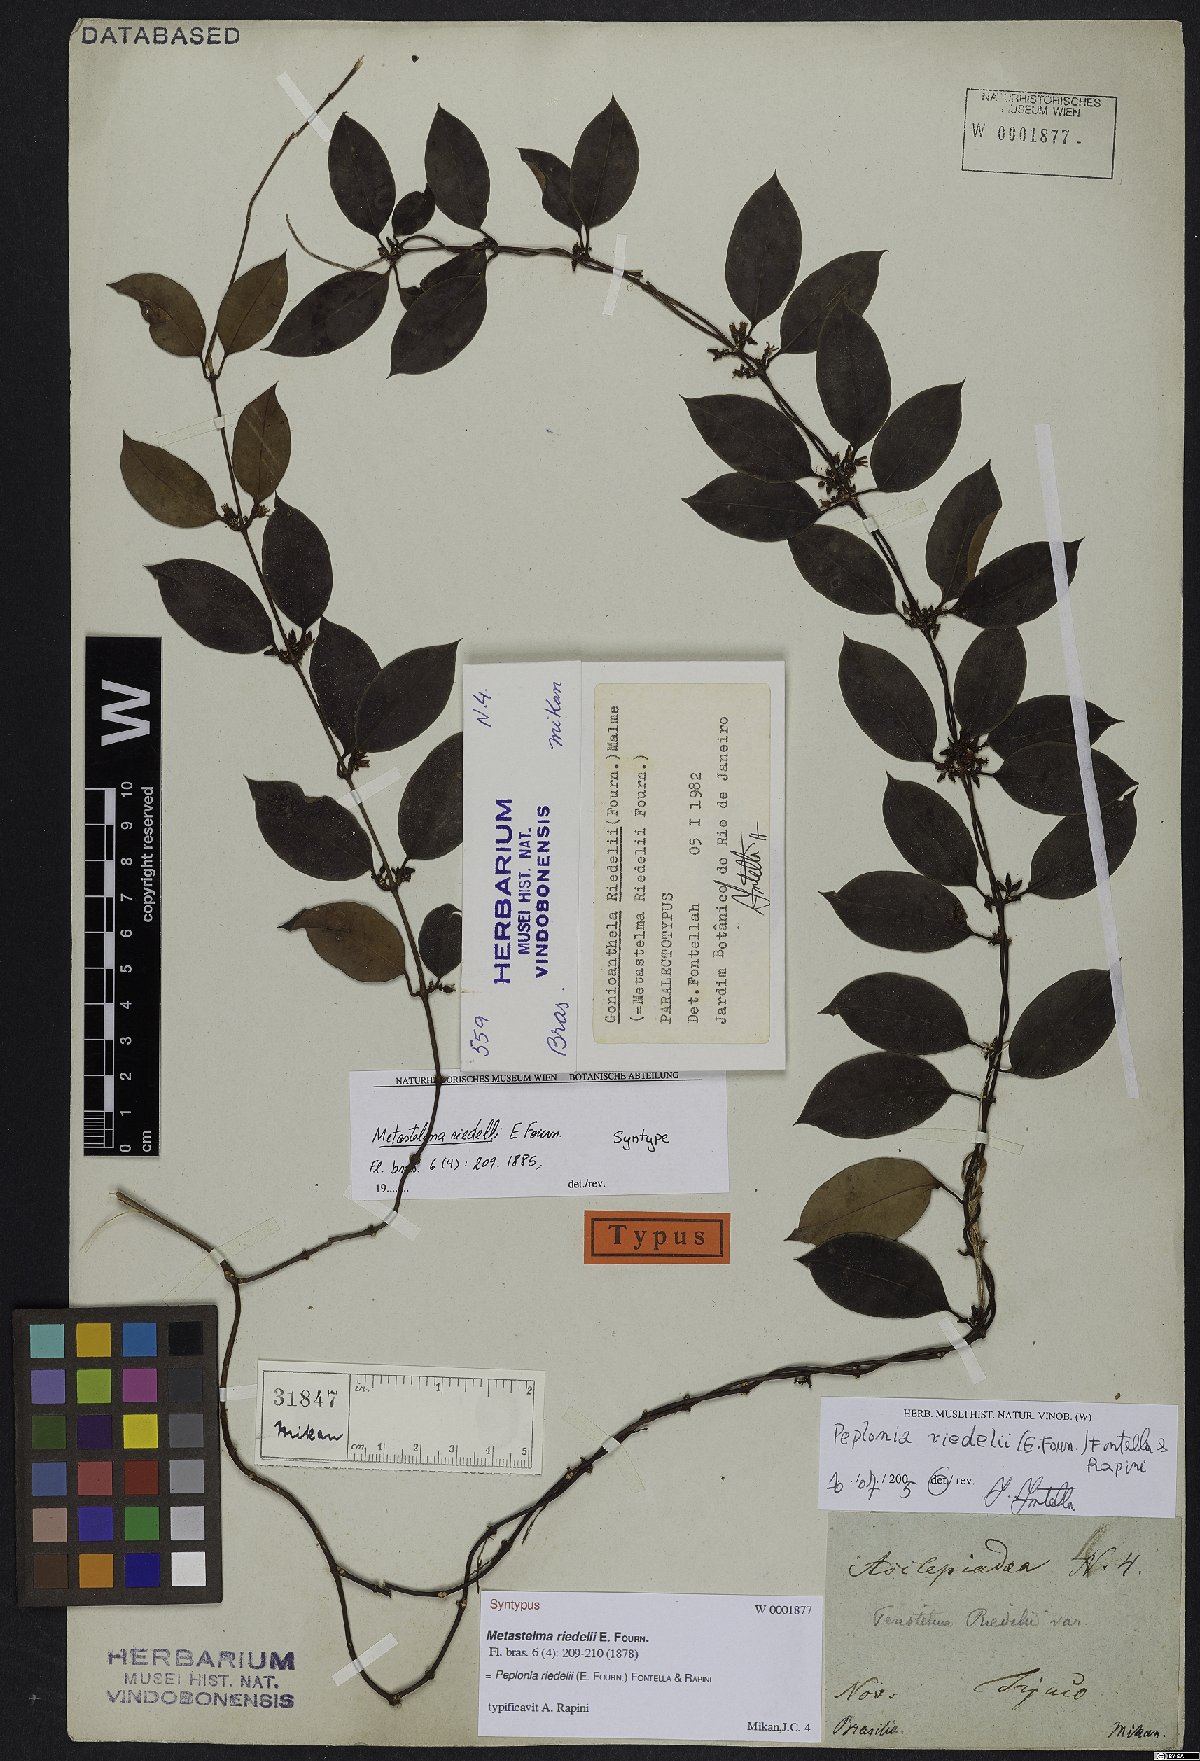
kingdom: Plantae
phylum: Tracheophyta
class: Magnoliopsida
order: Gentianales
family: Apocynaceae
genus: Peplonia
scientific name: Peplonia riedelii
